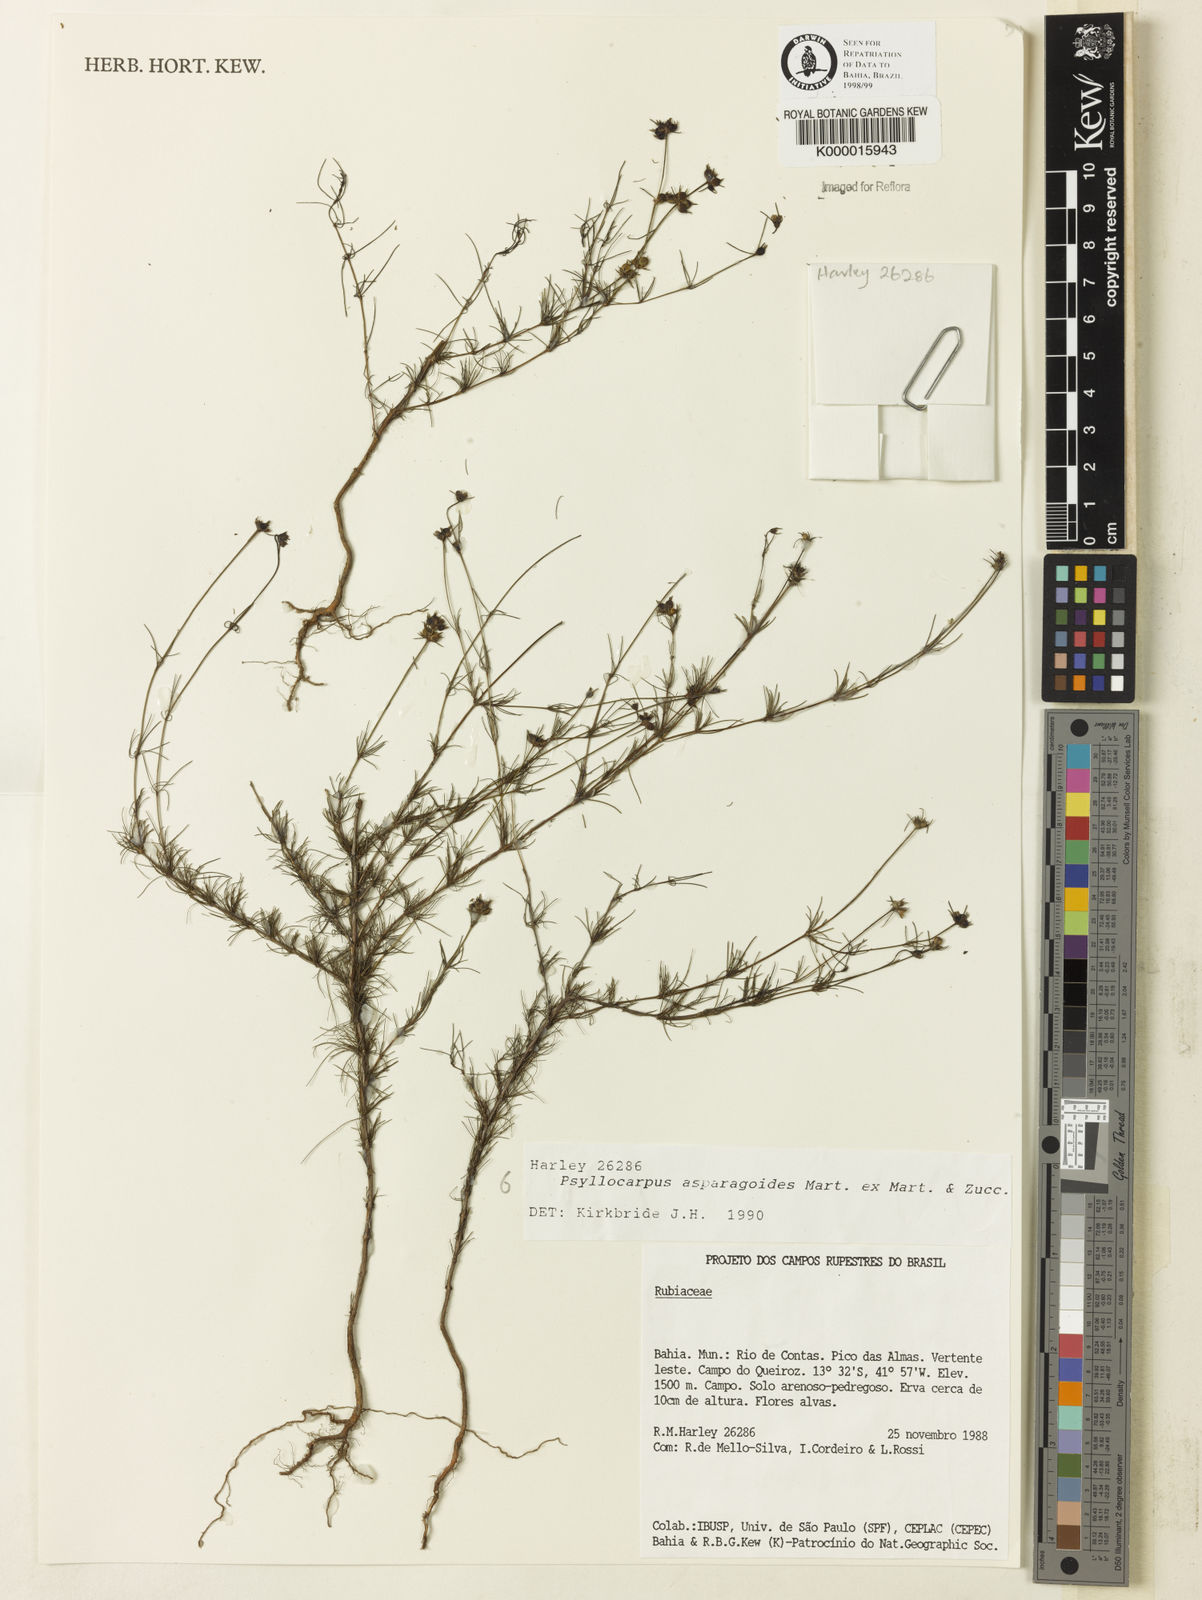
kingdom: Plantae
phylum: Tracheophyta
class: Magnoliopsida
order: Gentianales
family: Rubiaceae
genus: Psyllocarpus
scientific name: Psyllocarpus asparagoides
